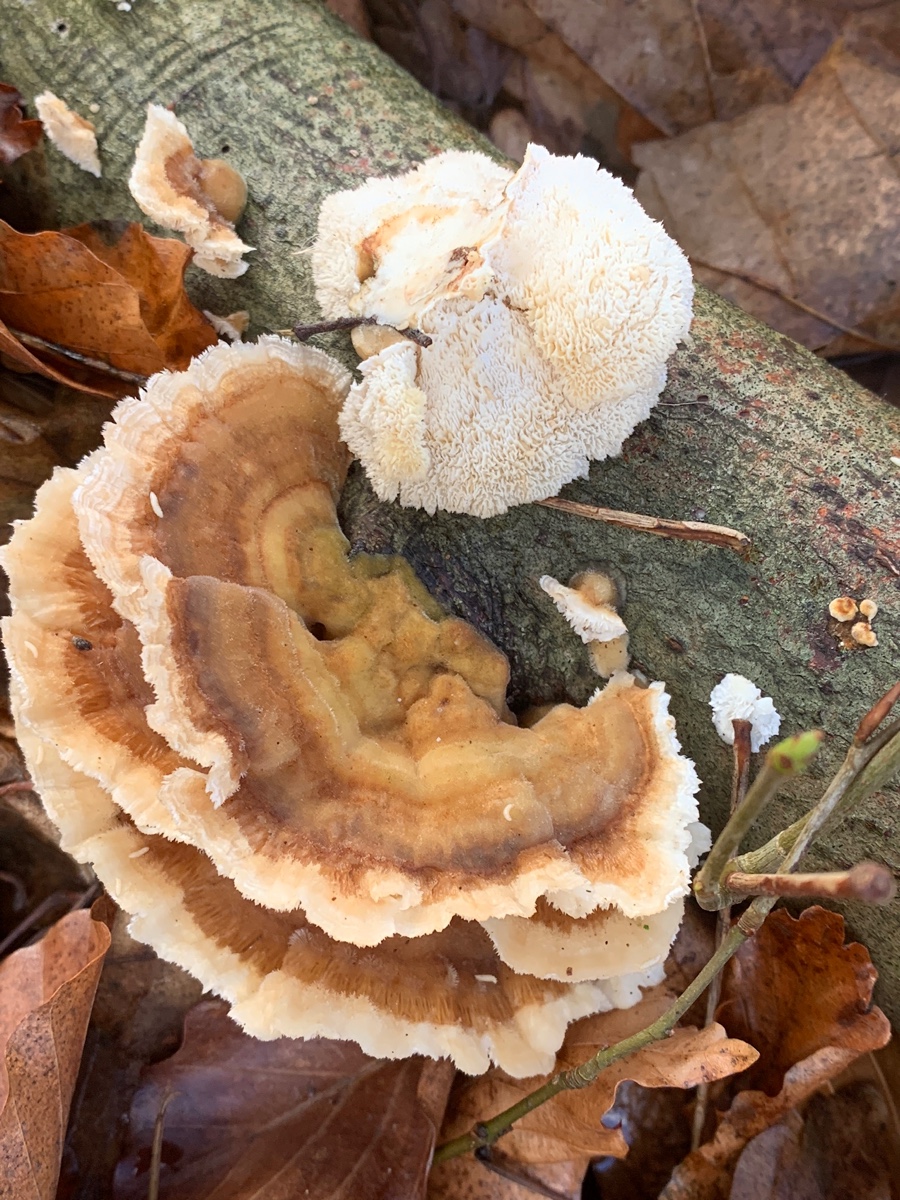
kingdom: Fungi
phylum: Basidiomycota
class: Agaricomycetes
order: Polyporales
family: Polyporaceae
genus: Trametes
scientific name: Trametes versicolor
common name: broget læderporesvamp
